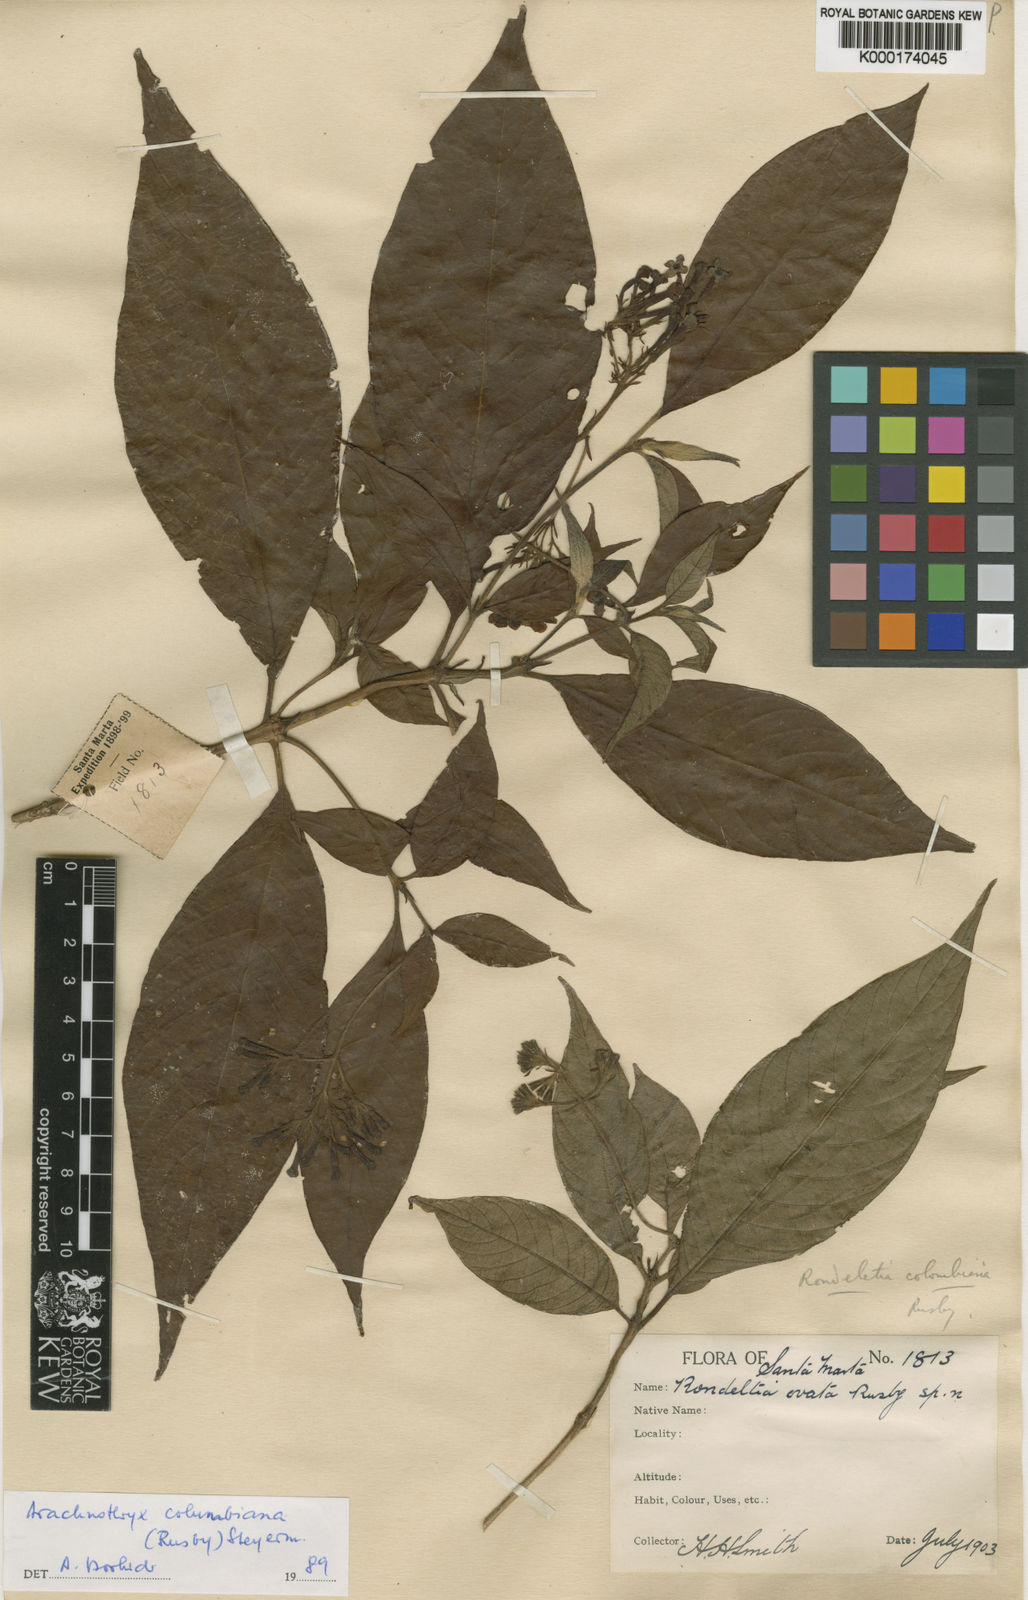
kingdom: Plantae
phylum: Tracheophyta
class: Magnoliopsida
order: Gentianales
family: Rubiaceae
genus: Arachnothryx
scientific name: Arachnothryx ovata
